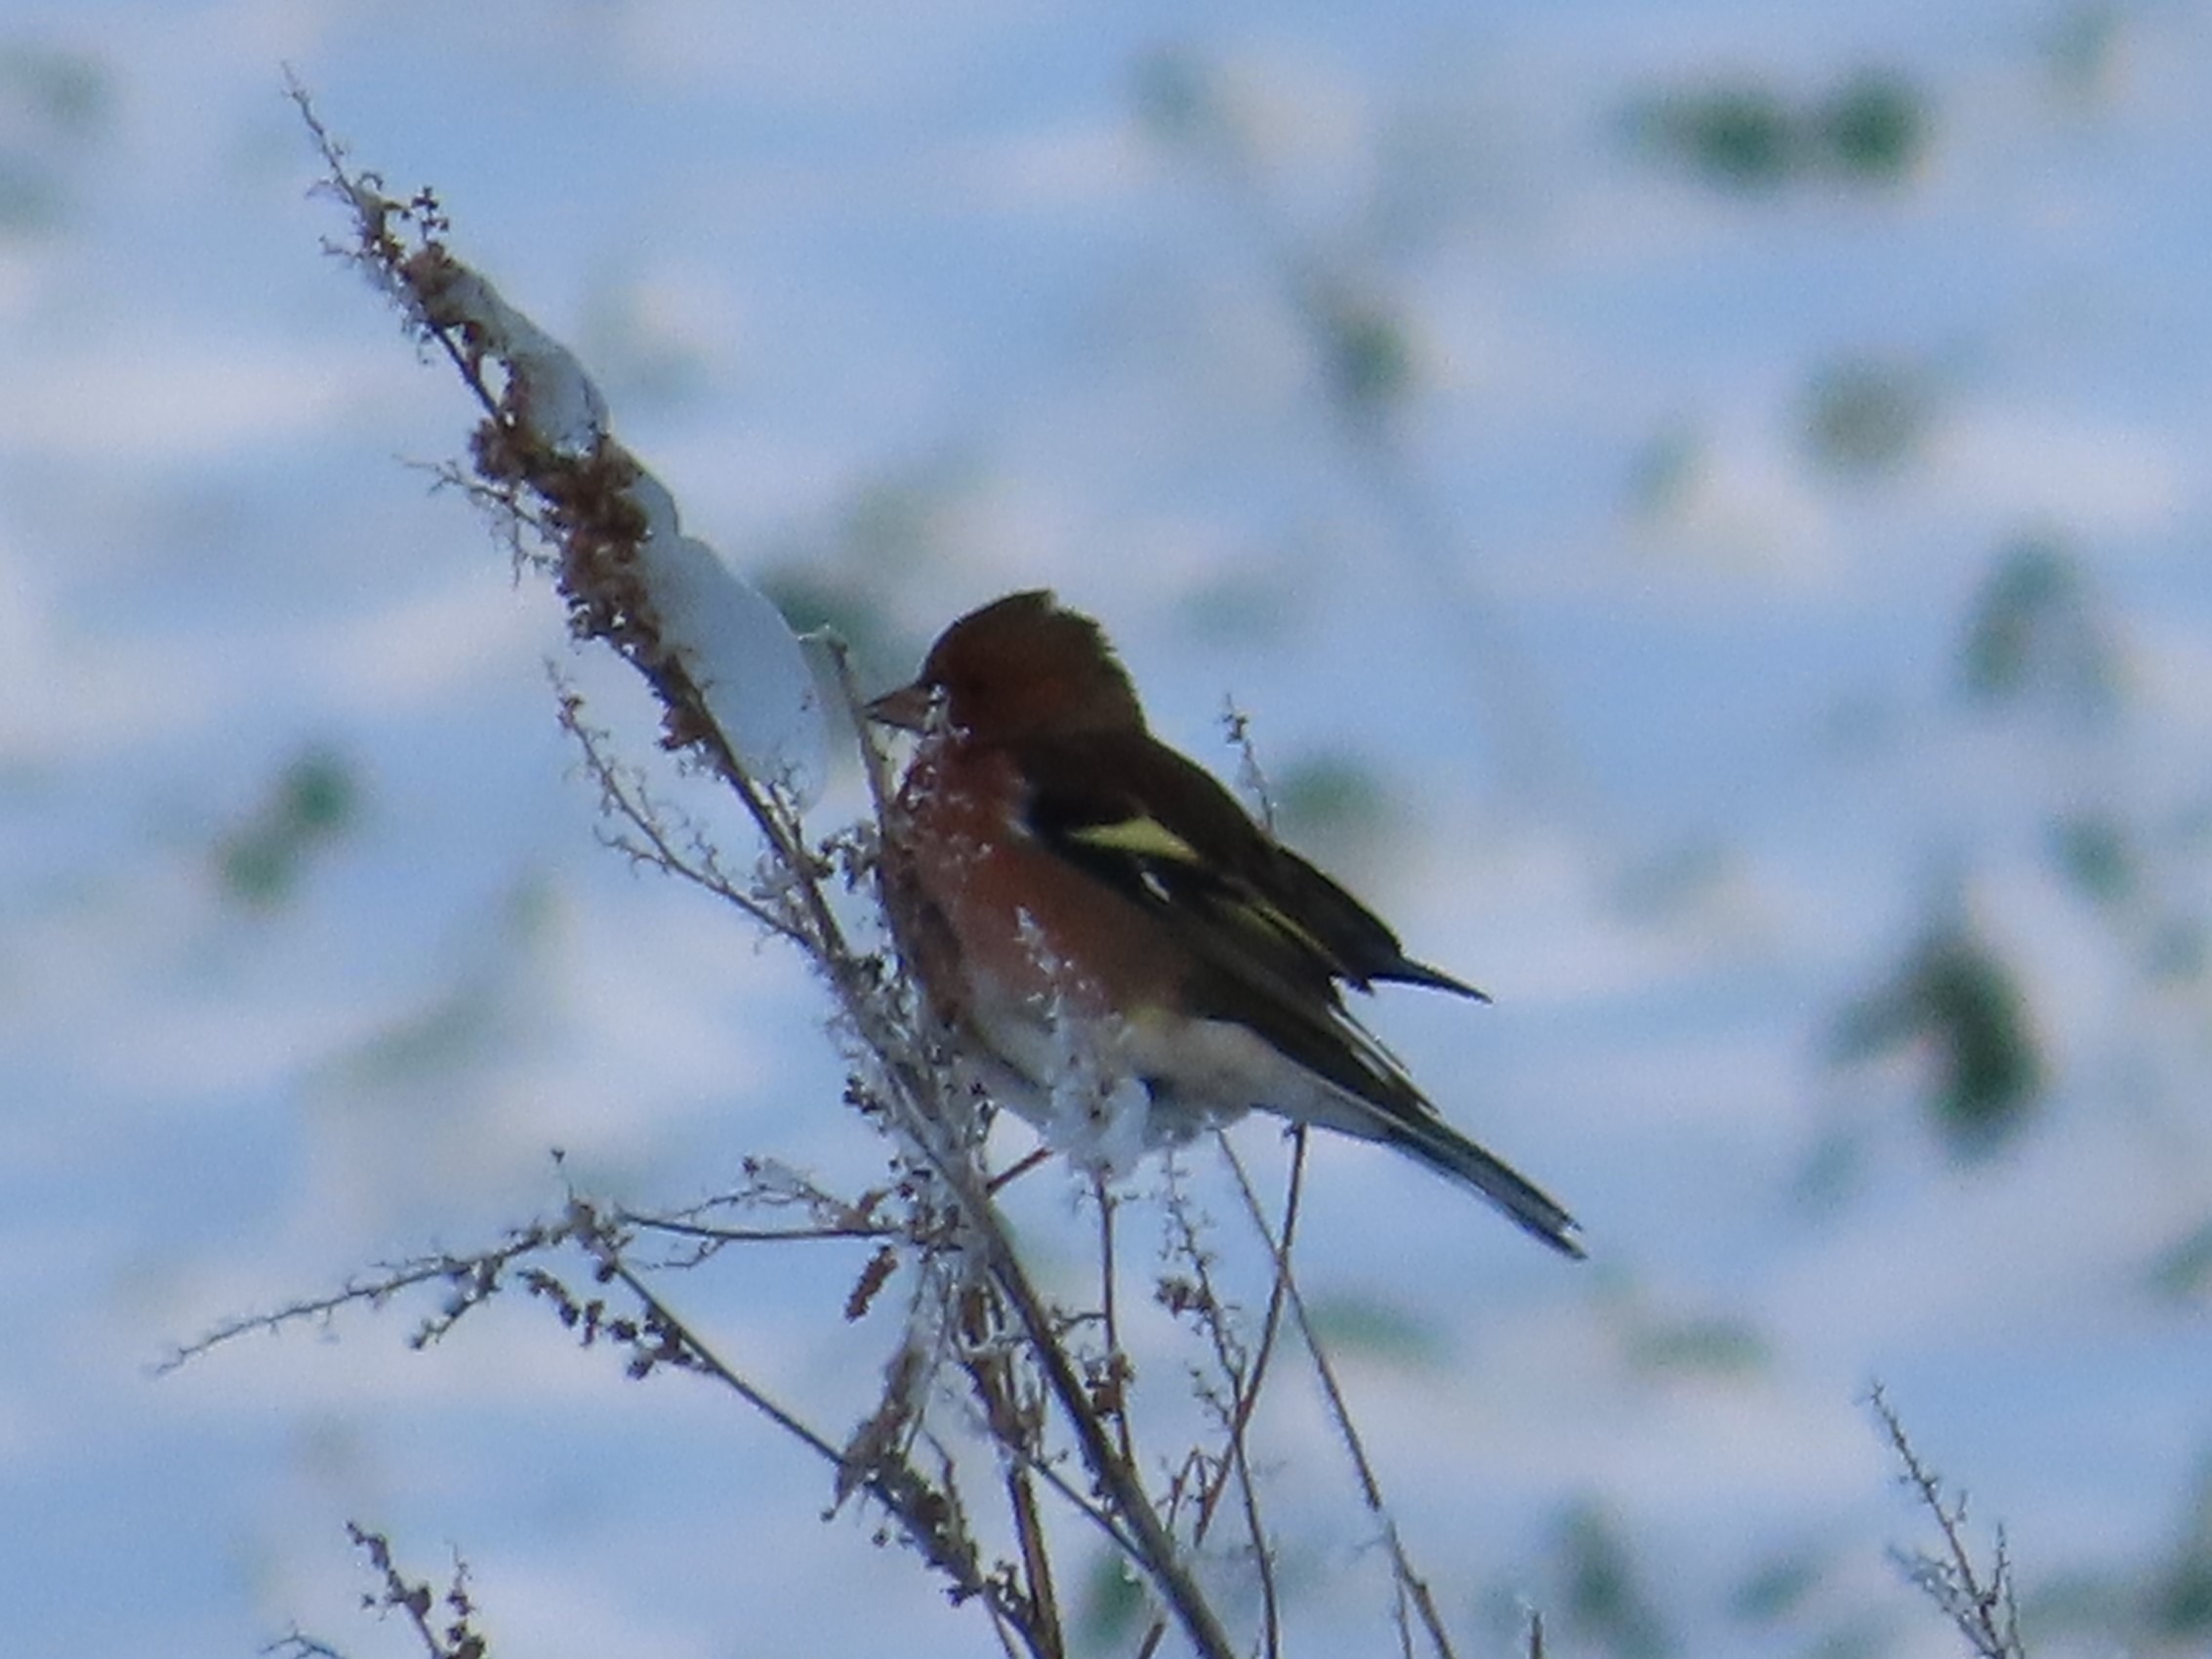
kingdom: Animalia
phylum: Chordata
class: Aves
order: Passeriformes
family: Fringillidae
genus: Fringilla
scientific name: Fringilla coelebs
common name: Bogfinke
